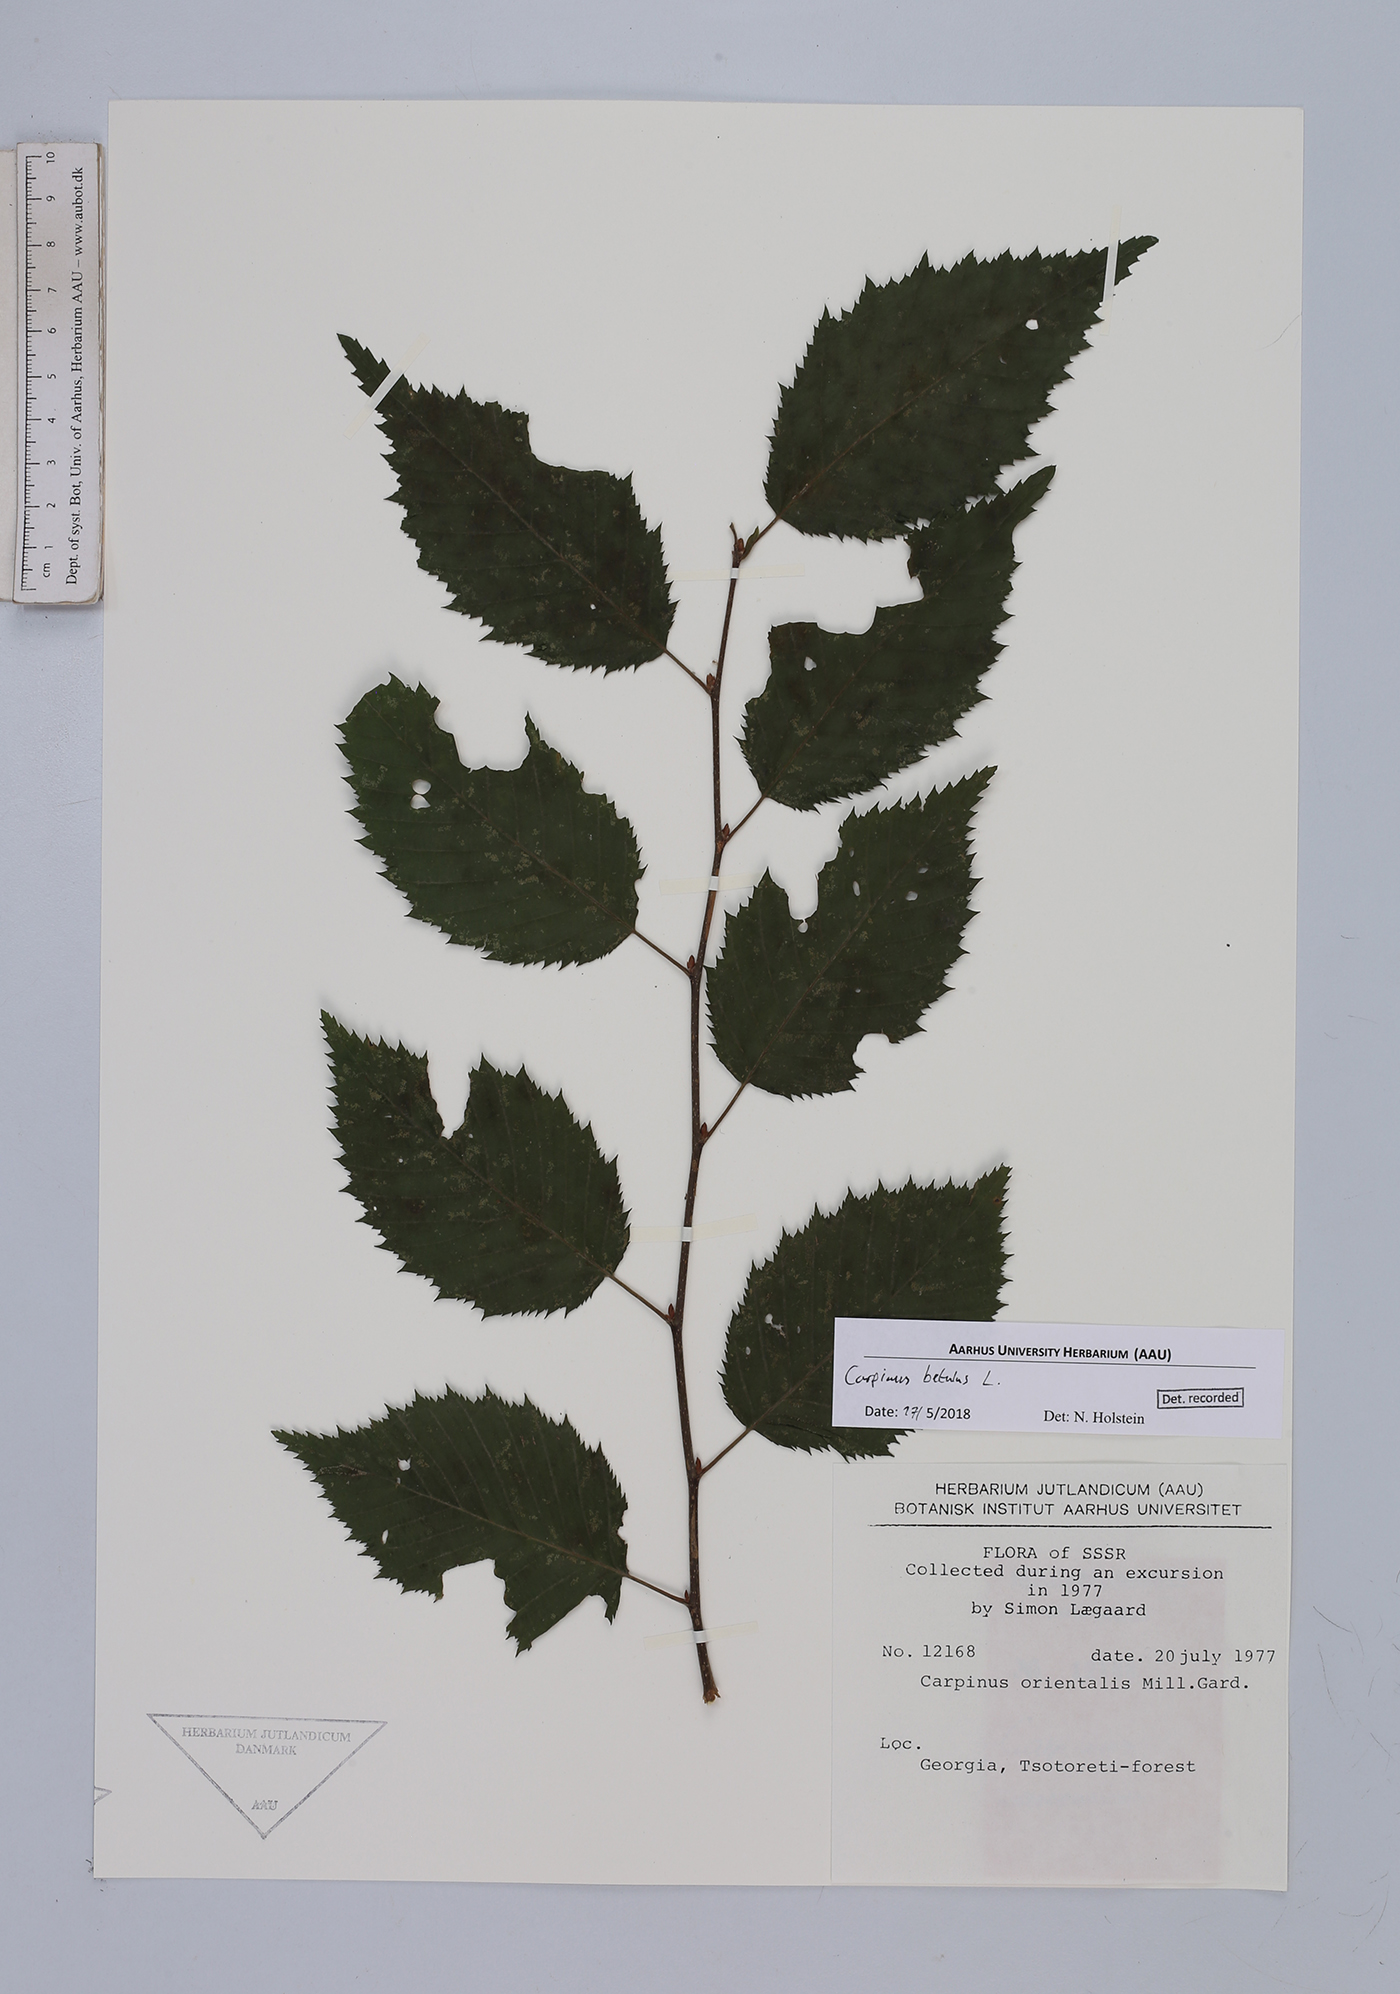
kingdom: Plantae
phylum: Tracheophyta
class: Magnoliopsida
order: Fagales
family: Betulaceae
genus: Carpinus
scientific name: Carpinus betulus
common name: Hornbeam
